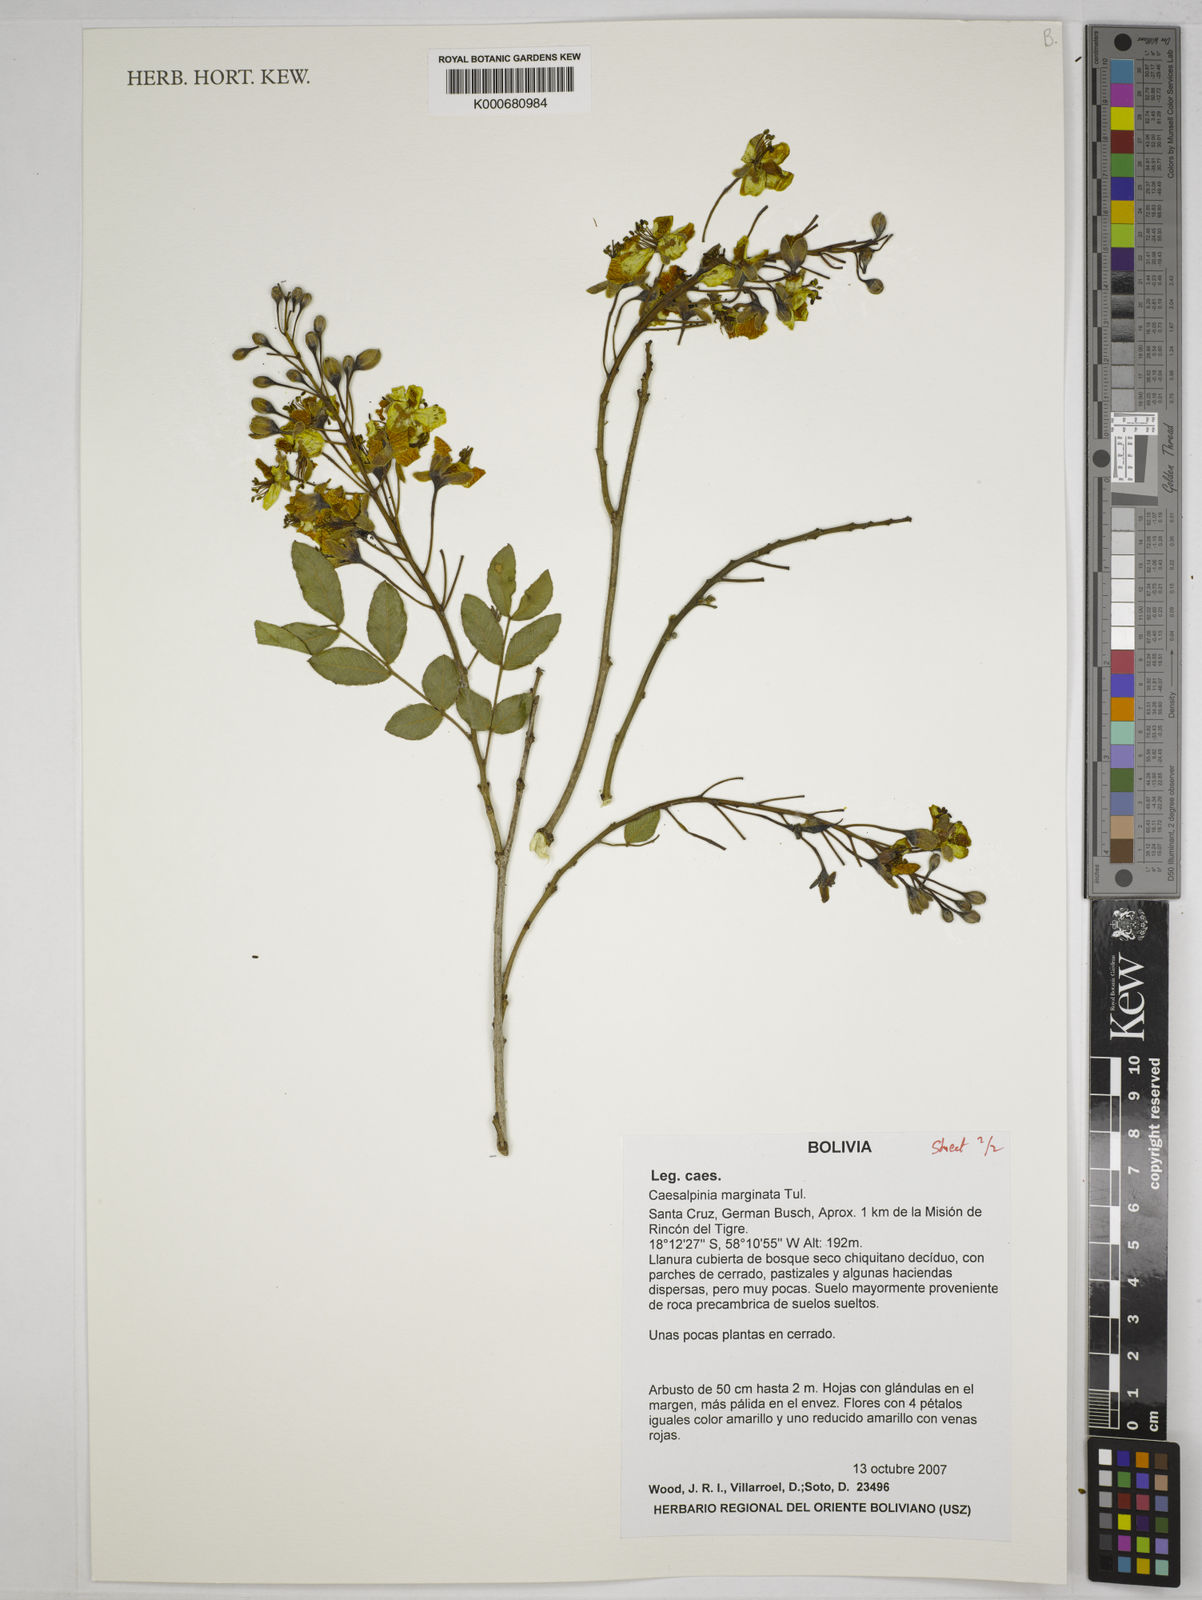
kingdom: Plantae
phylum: Tracheophyta
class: Magnoliopsida
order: Fabales
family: Fabaceae
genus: Cenostigma
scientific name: Cenostigma marginatum
